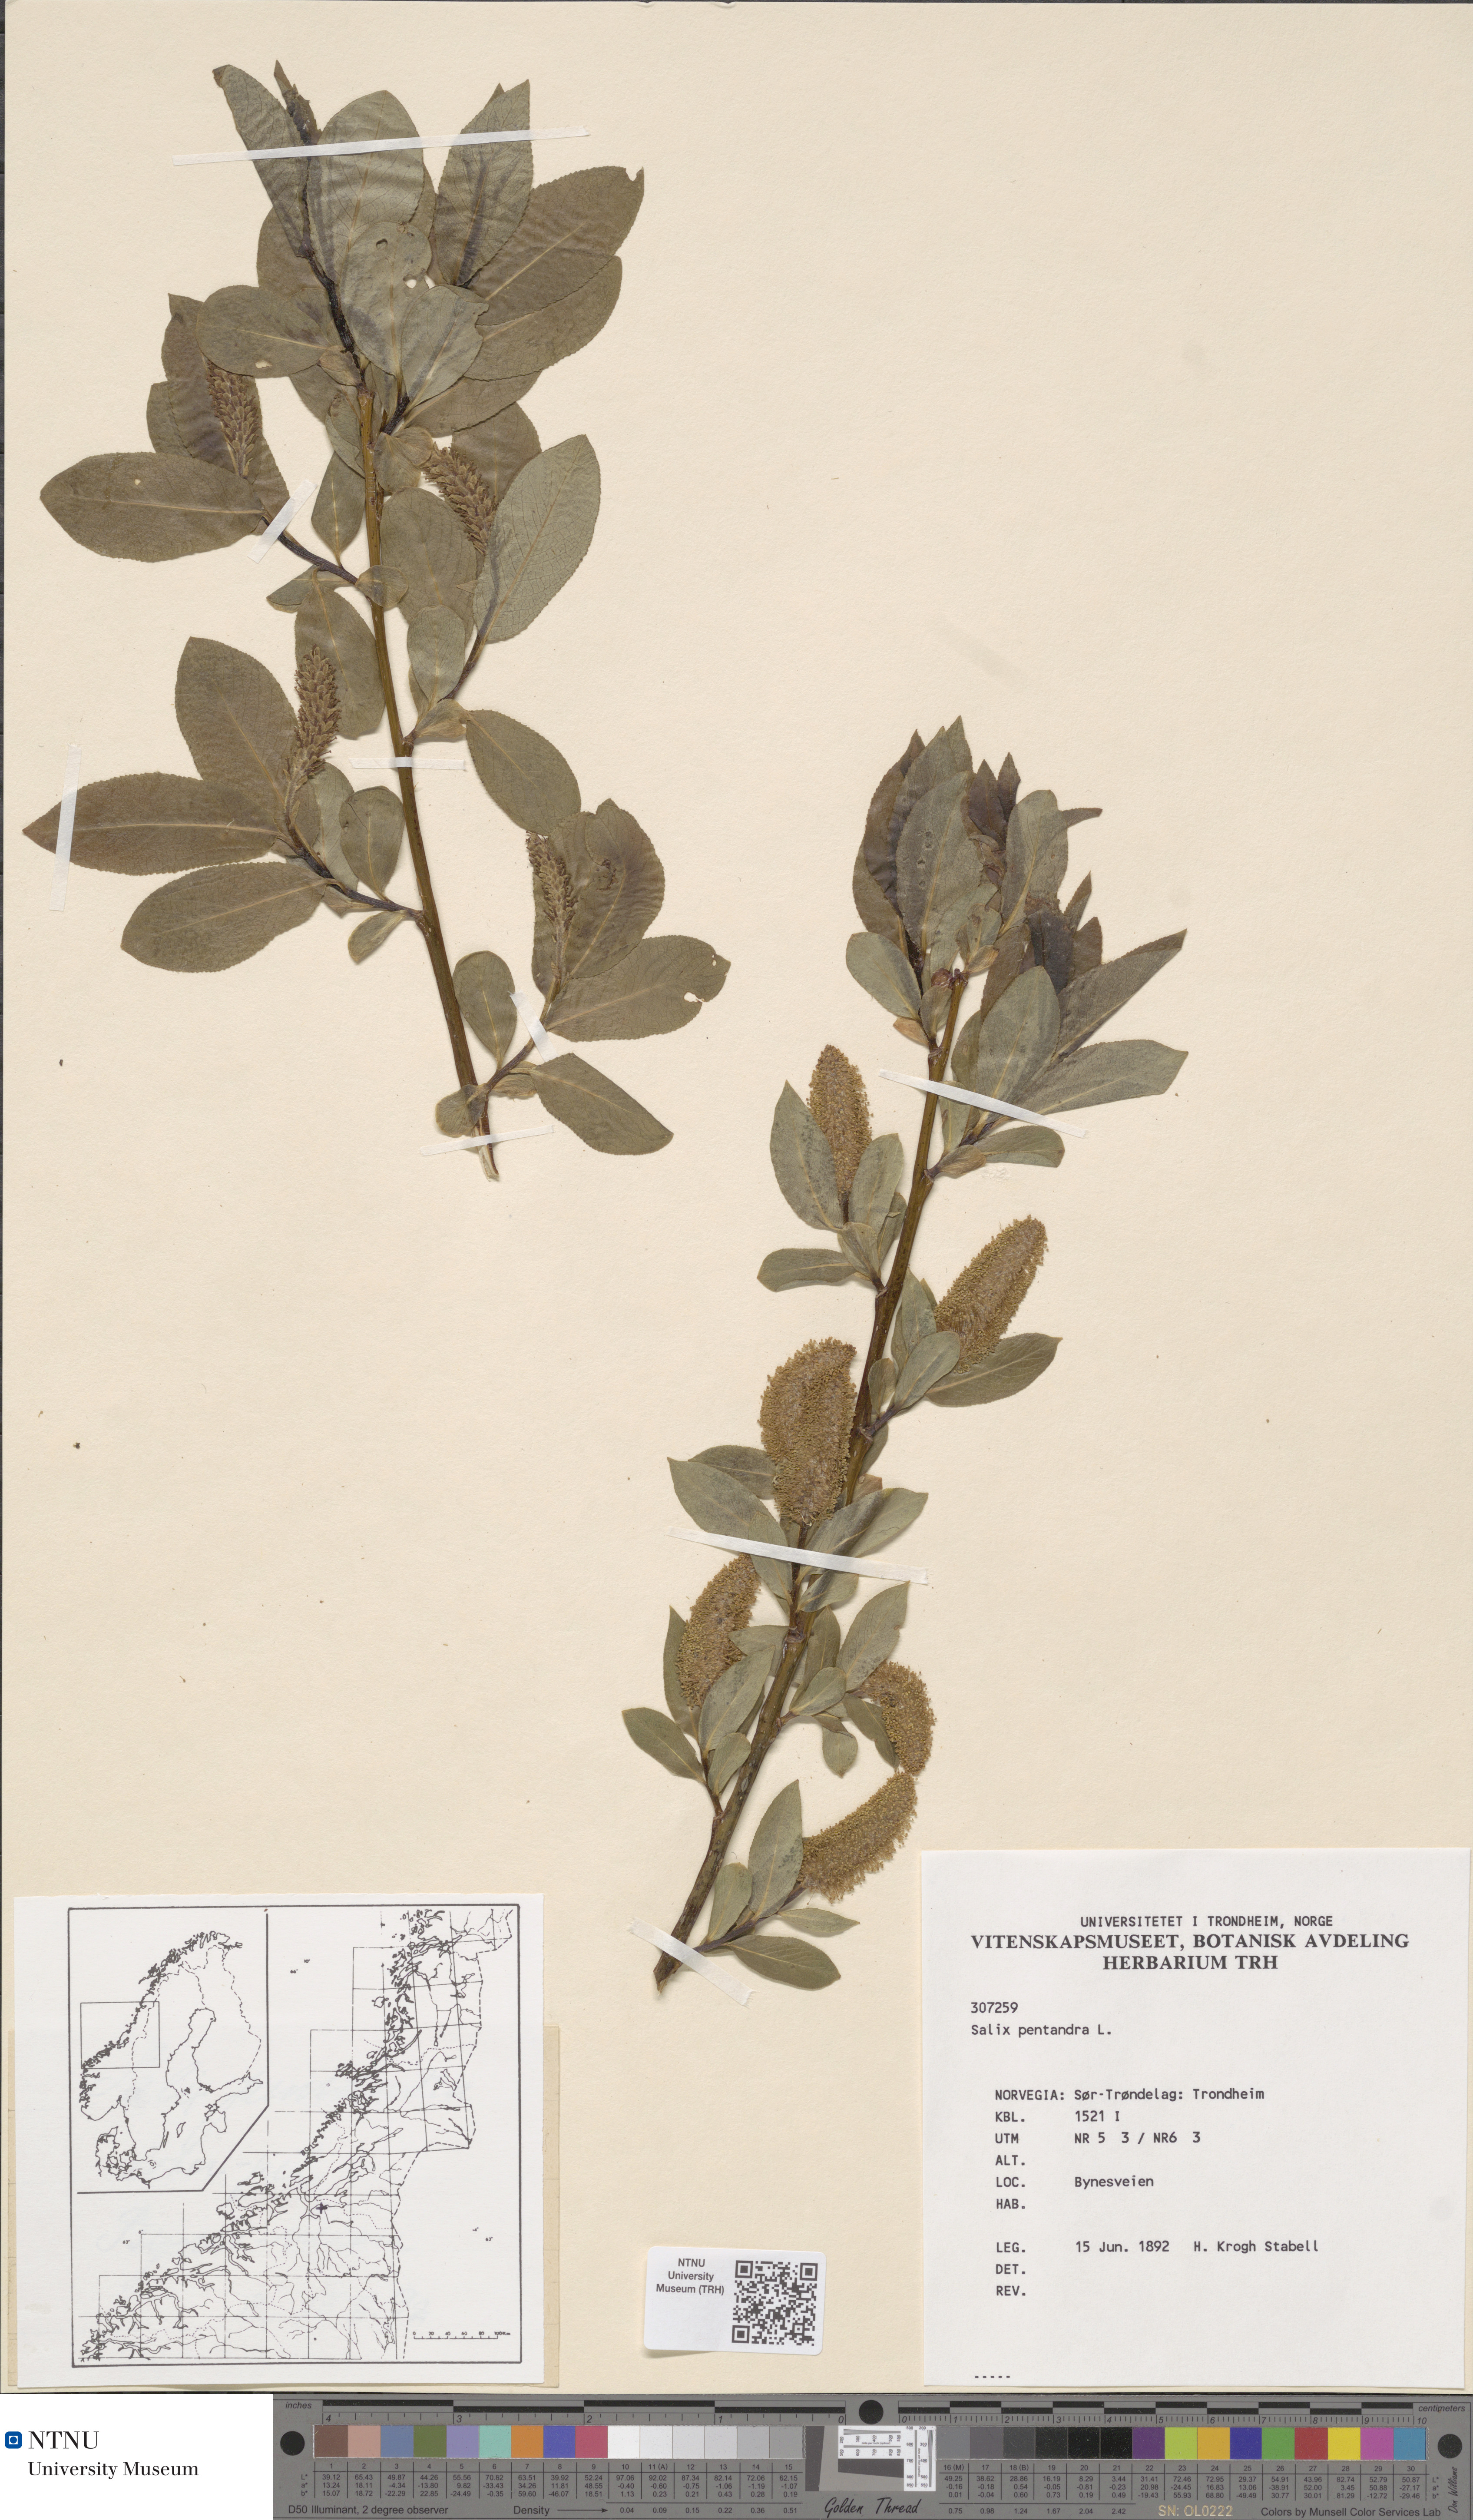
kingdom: Plantae
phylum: Tracheophyta
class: Magnoliopsida
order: Malpighiales
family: Salicaceae
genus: Salix
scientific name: Salix pentandra
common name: Bay willow
